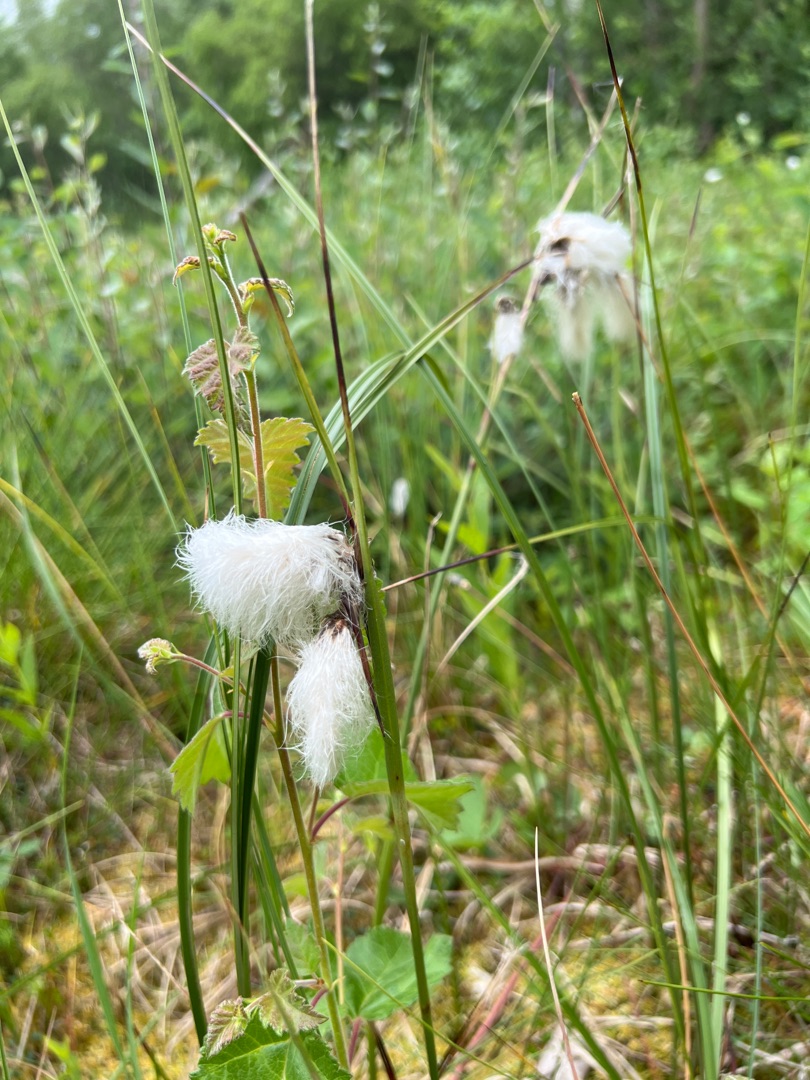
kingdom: Plantae
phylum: Tracheophyta
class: Liliopsida
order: Poales
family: Cyperaceae
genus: Eriophorum
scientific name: Eriophorum angustifolium
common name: Smalbladet kæruld
